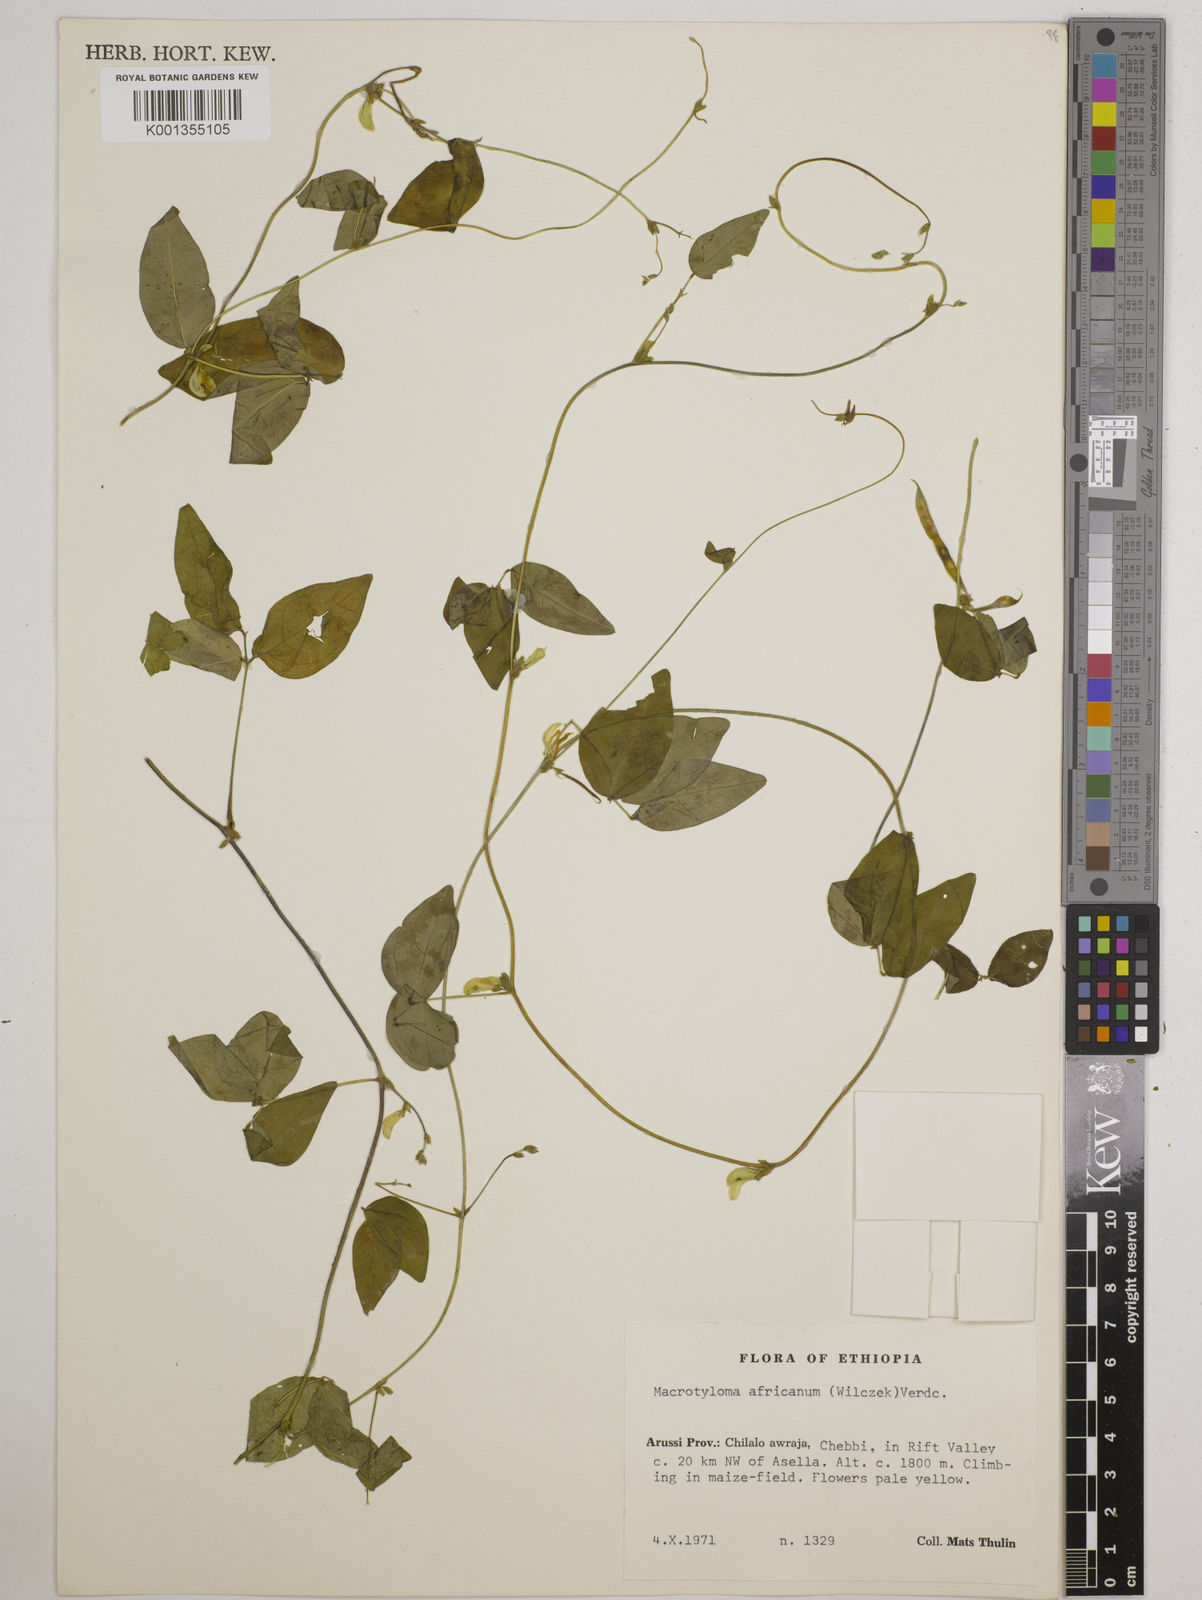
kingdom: Plantae
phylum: Tracheophyta
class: Magnoliopsida
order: Fabales
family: Fabaceae
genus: Macrotyloma
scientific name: Macrotyloma africanum
